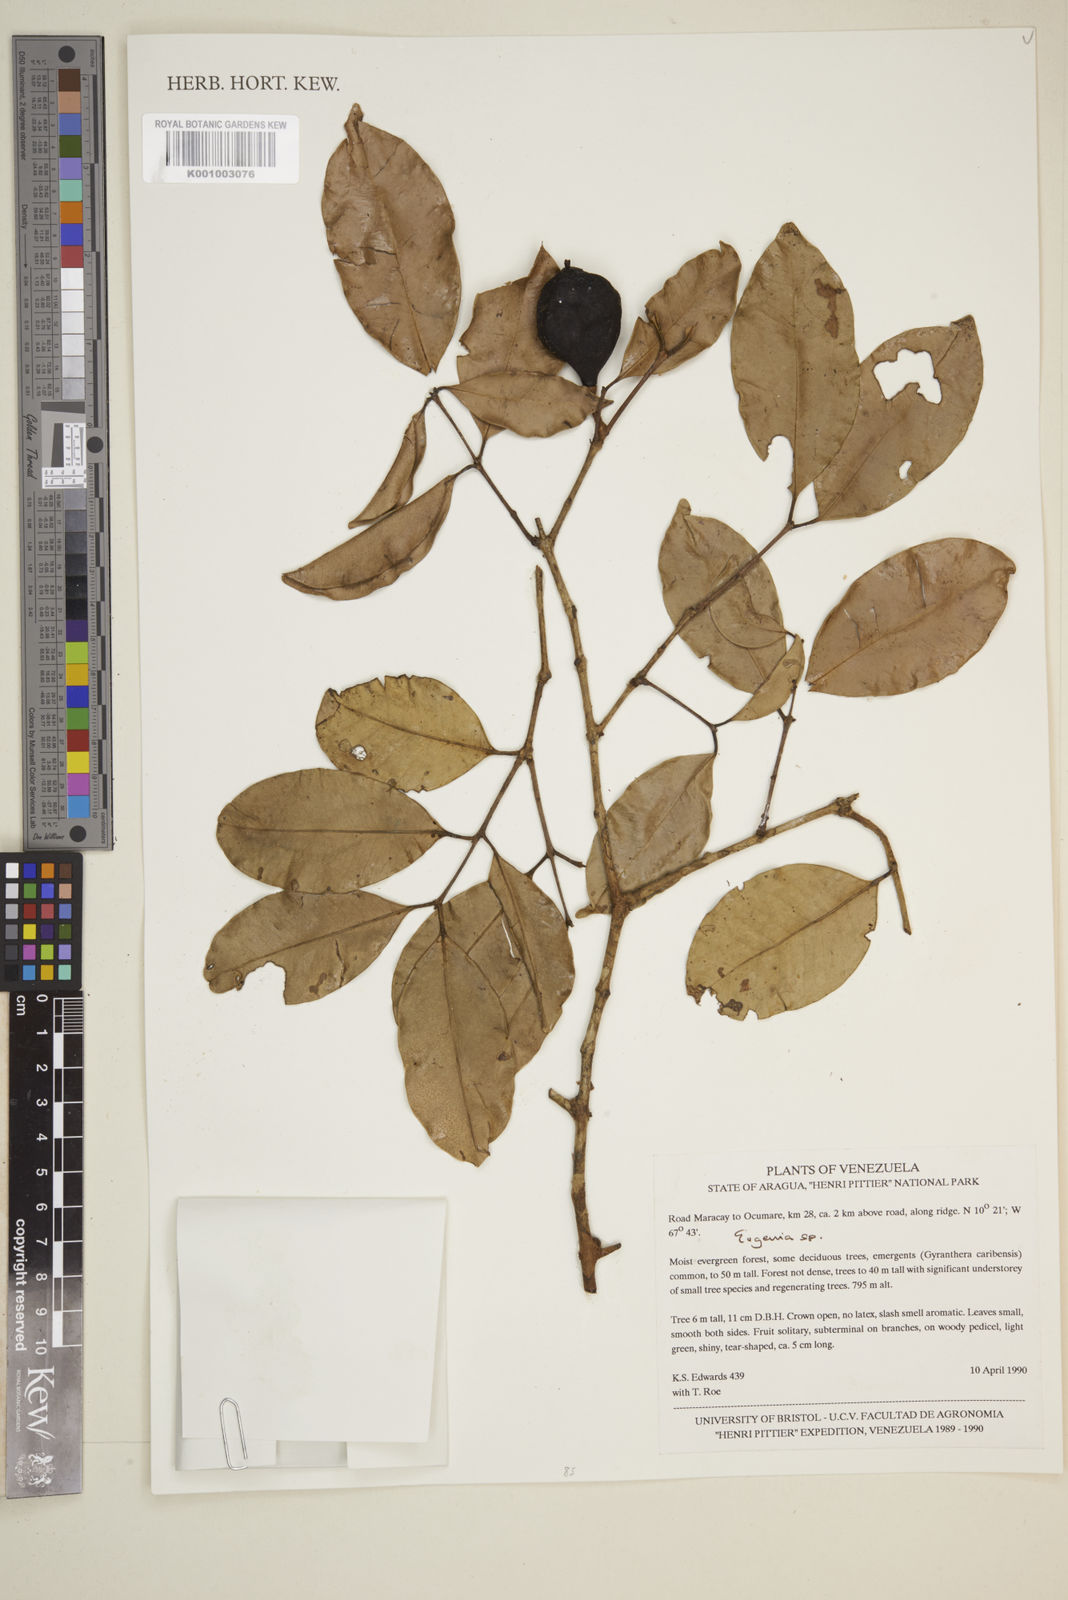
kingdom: Plantae
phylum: Tracheophyta
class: Magnoliopsida
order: Myrtales
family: Myrtaceae
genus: Eugenia
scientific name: Eugenia
